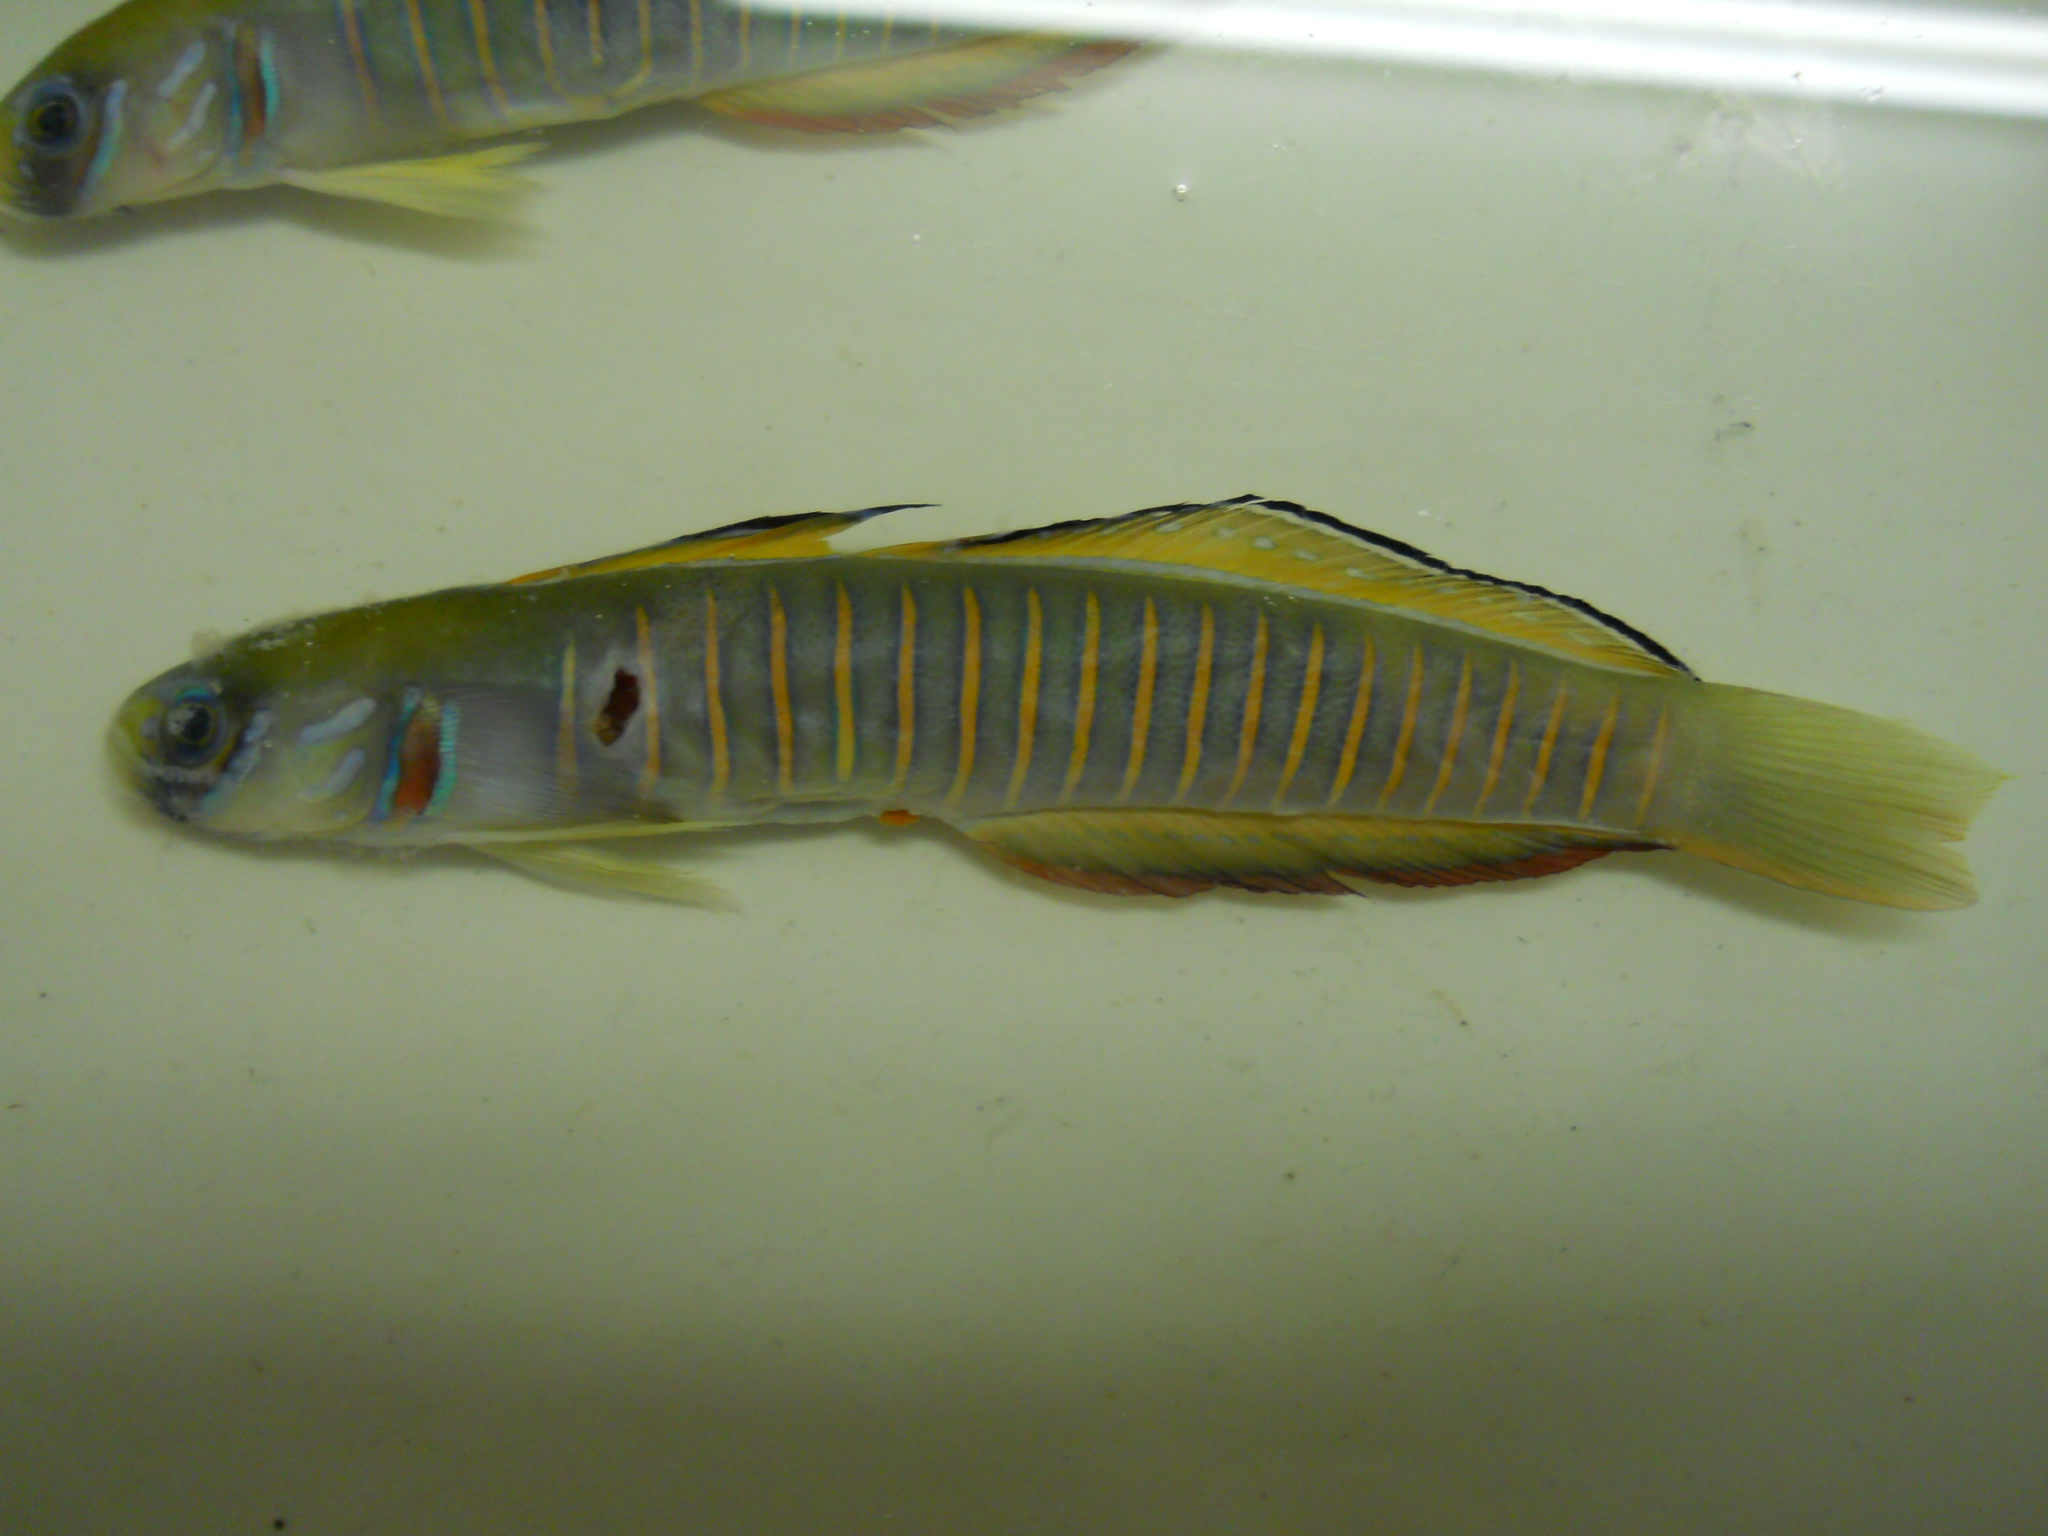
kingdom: Animalia
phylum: Chordata
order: Perciformes
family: Microdesmidae
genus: Ptereleotris
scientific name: Ptereleotris zebra
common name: Chinese zebra goby
